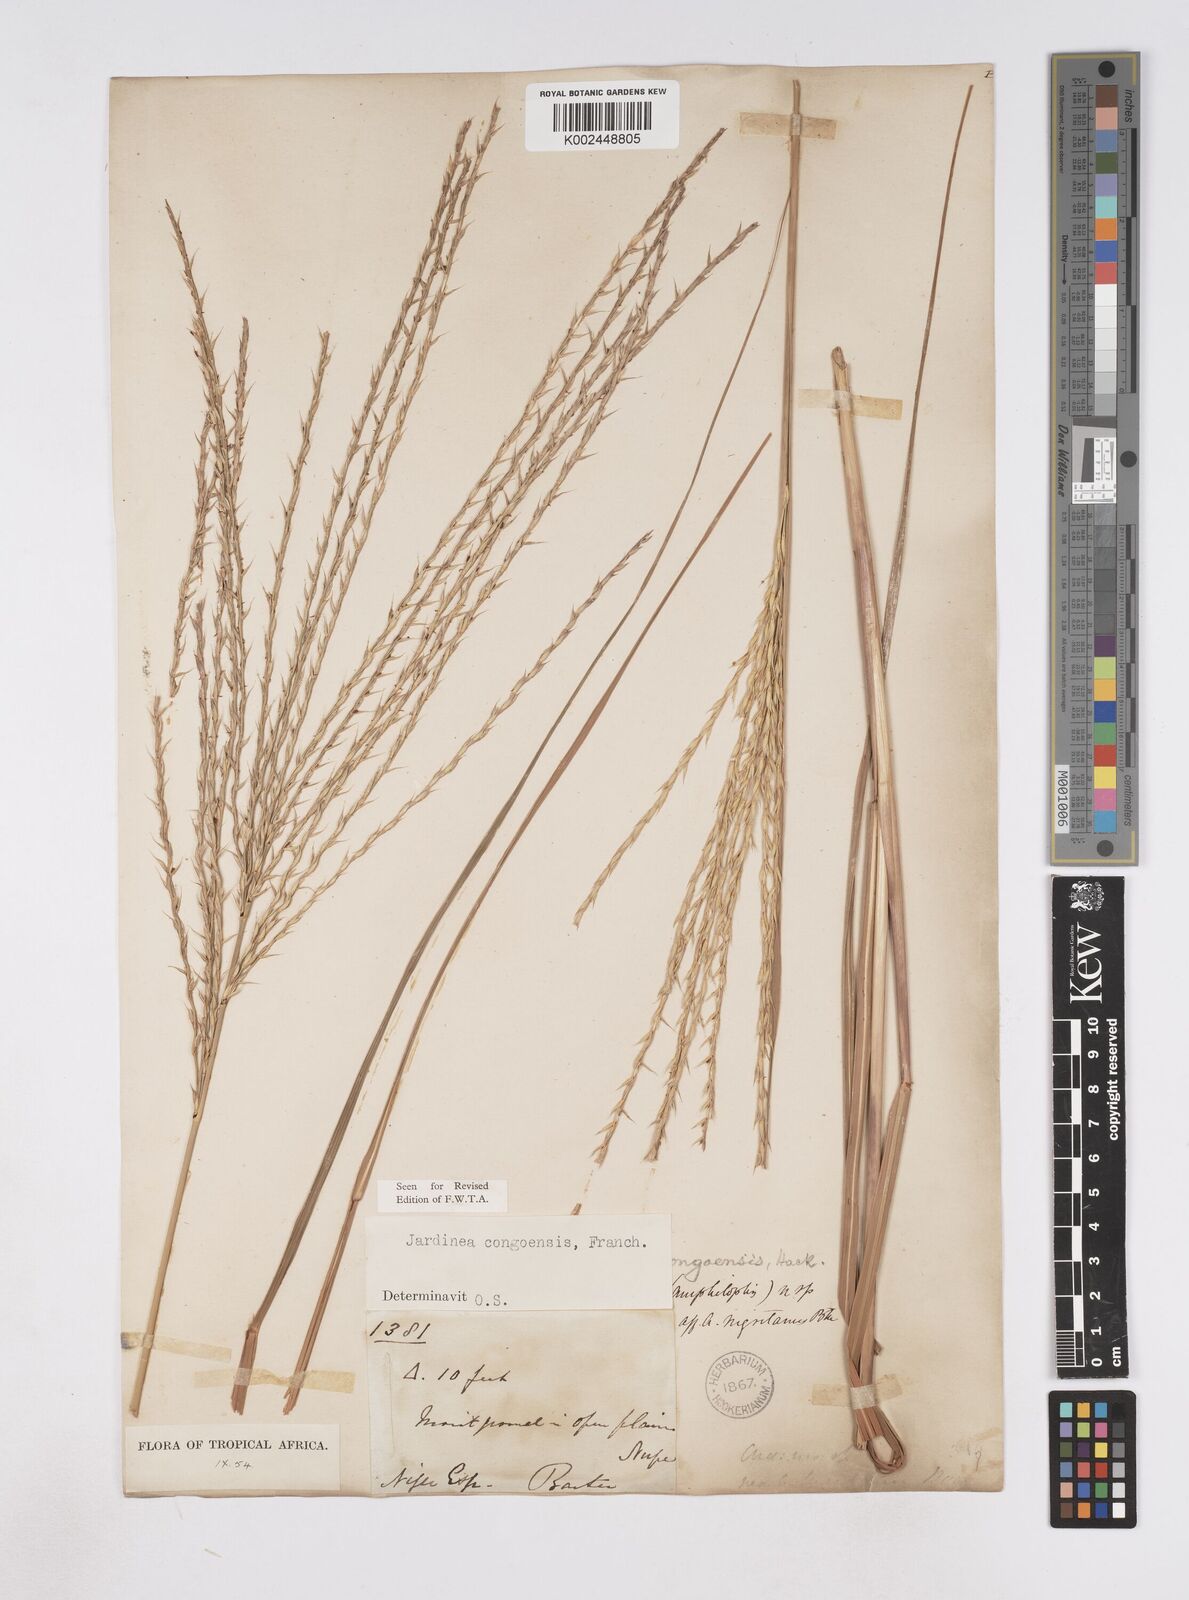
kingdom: Plantae
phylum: Tracheophyta
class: Liliopsida
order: Poales
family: Poaceae
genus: Phacelurus
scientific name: Phacelurus gabonensis
